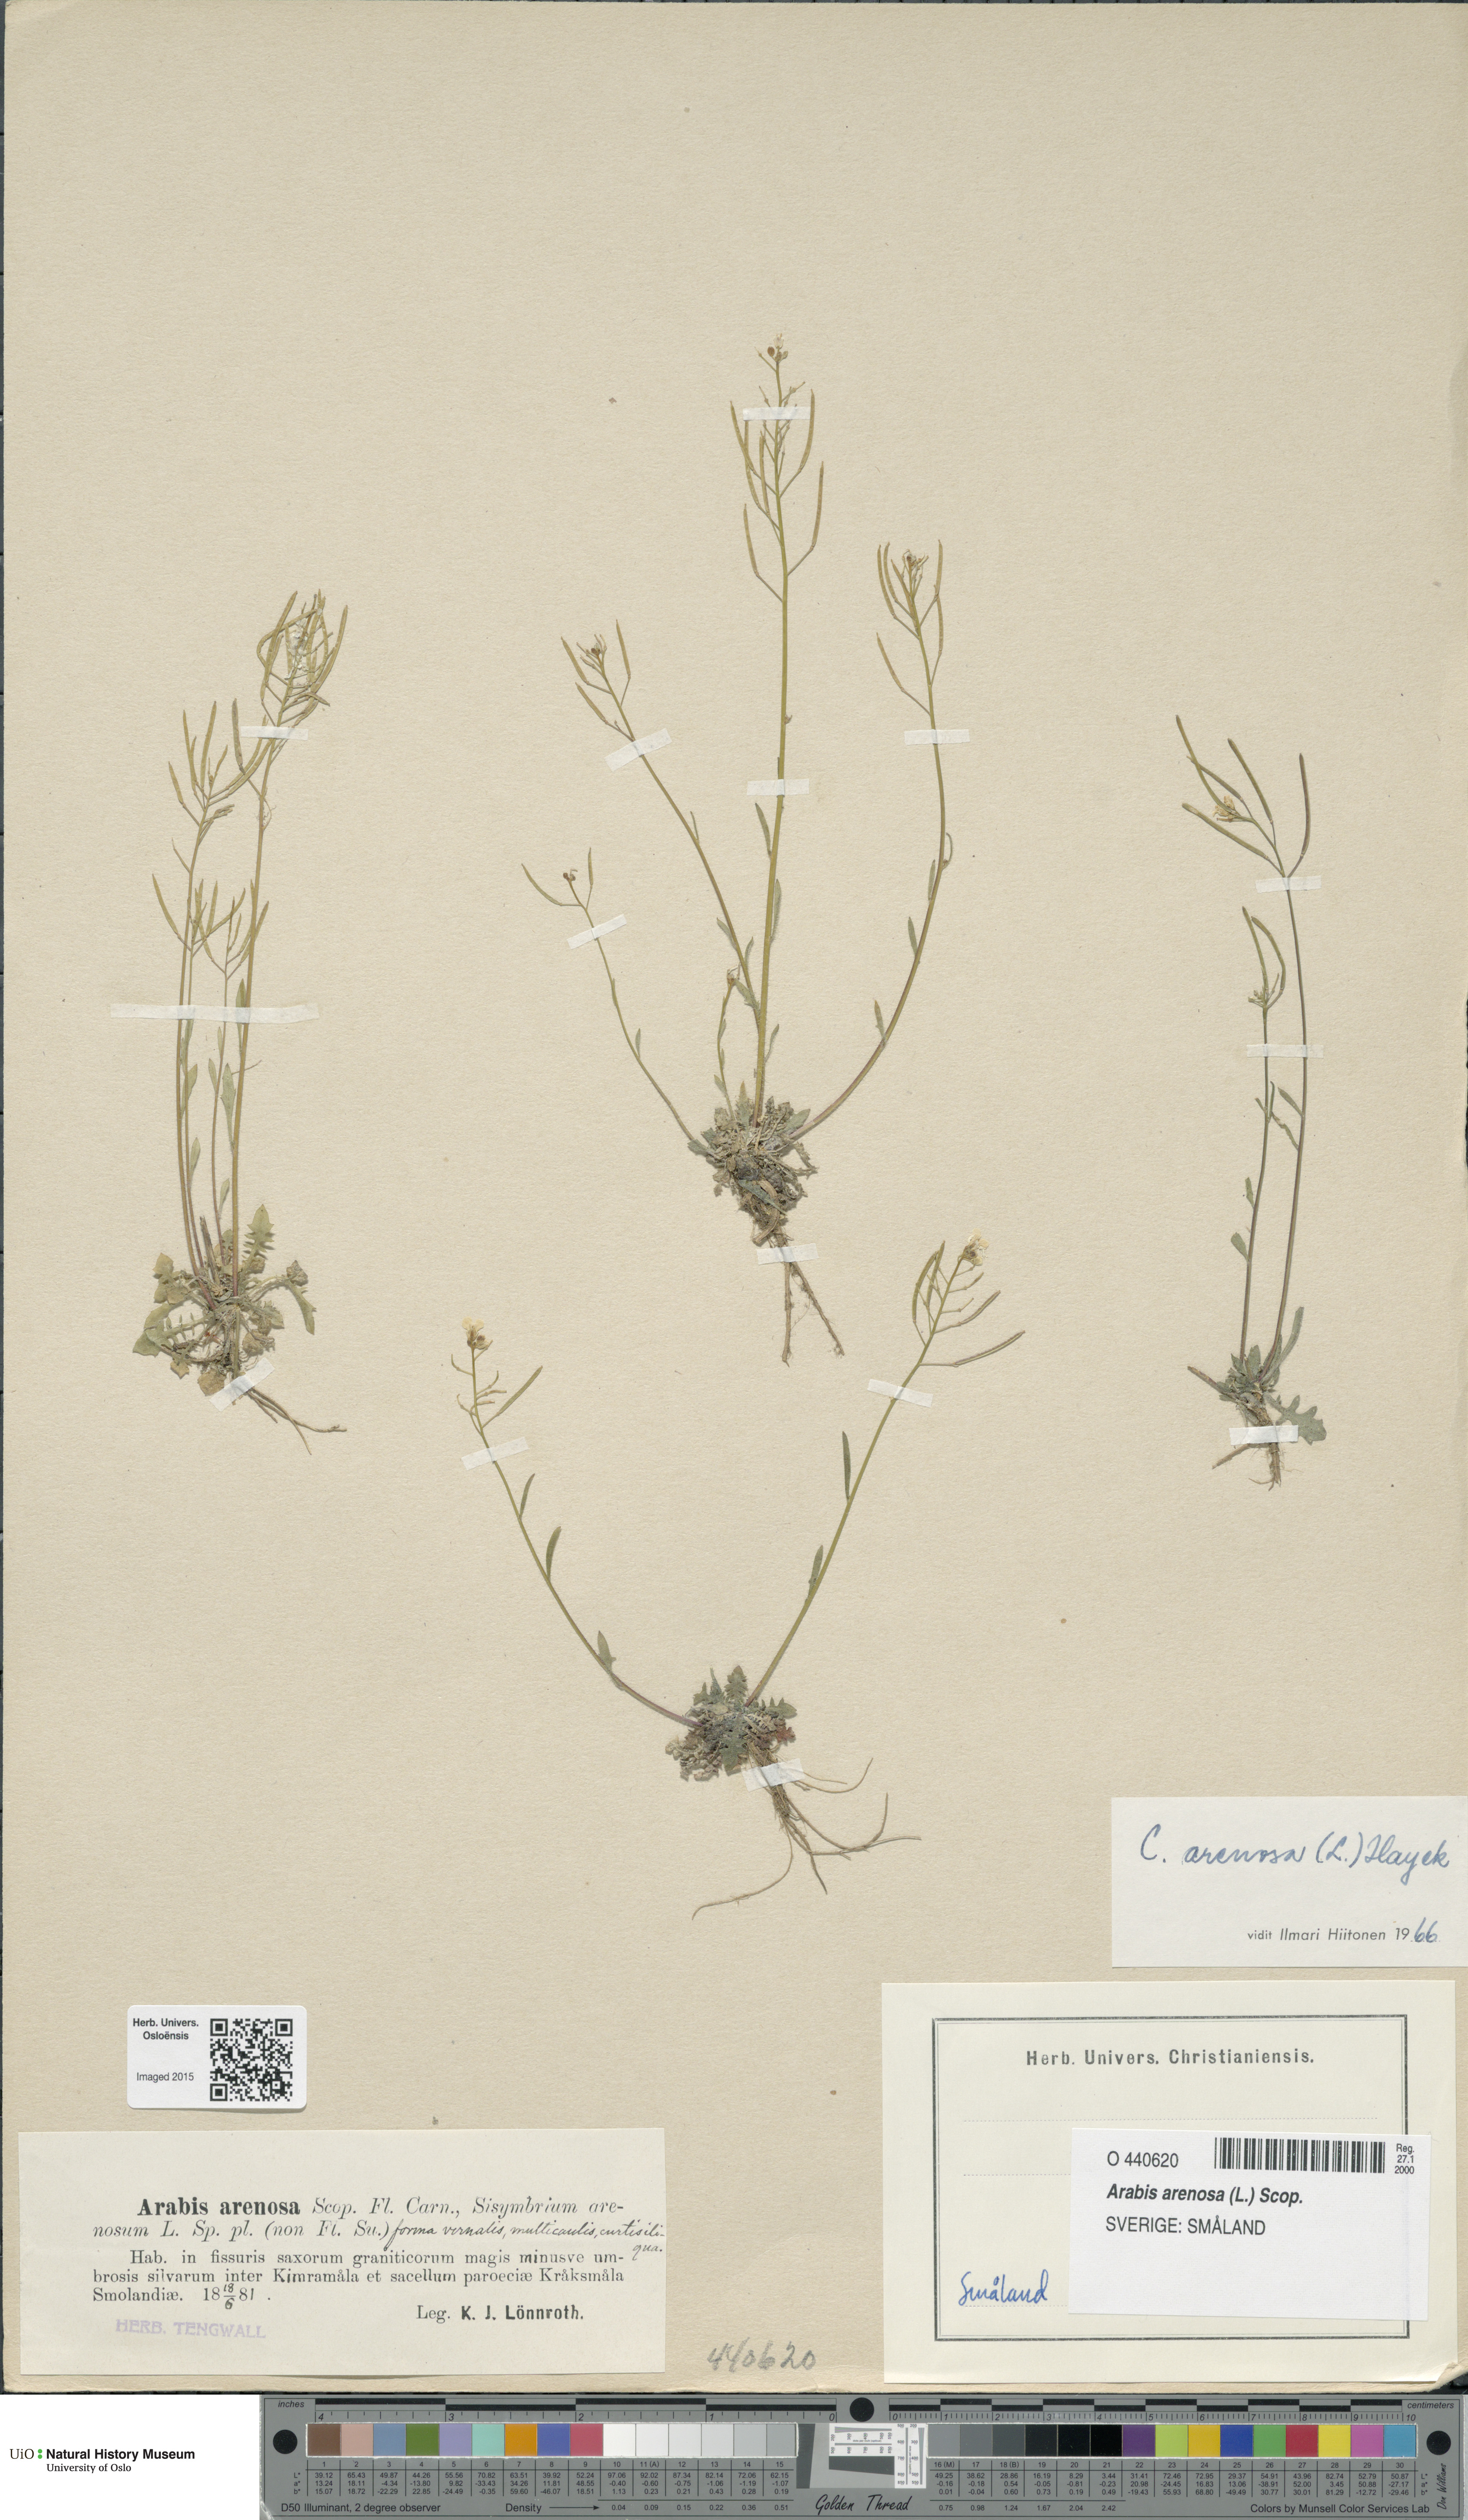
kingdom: Plantae
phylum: Tracheophyta
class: Magnoliopsida
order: Brassicales
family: Brassicaceae
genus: Arabidopsis
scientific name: Arabidopsis arenosa
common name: Sand rock-cress
